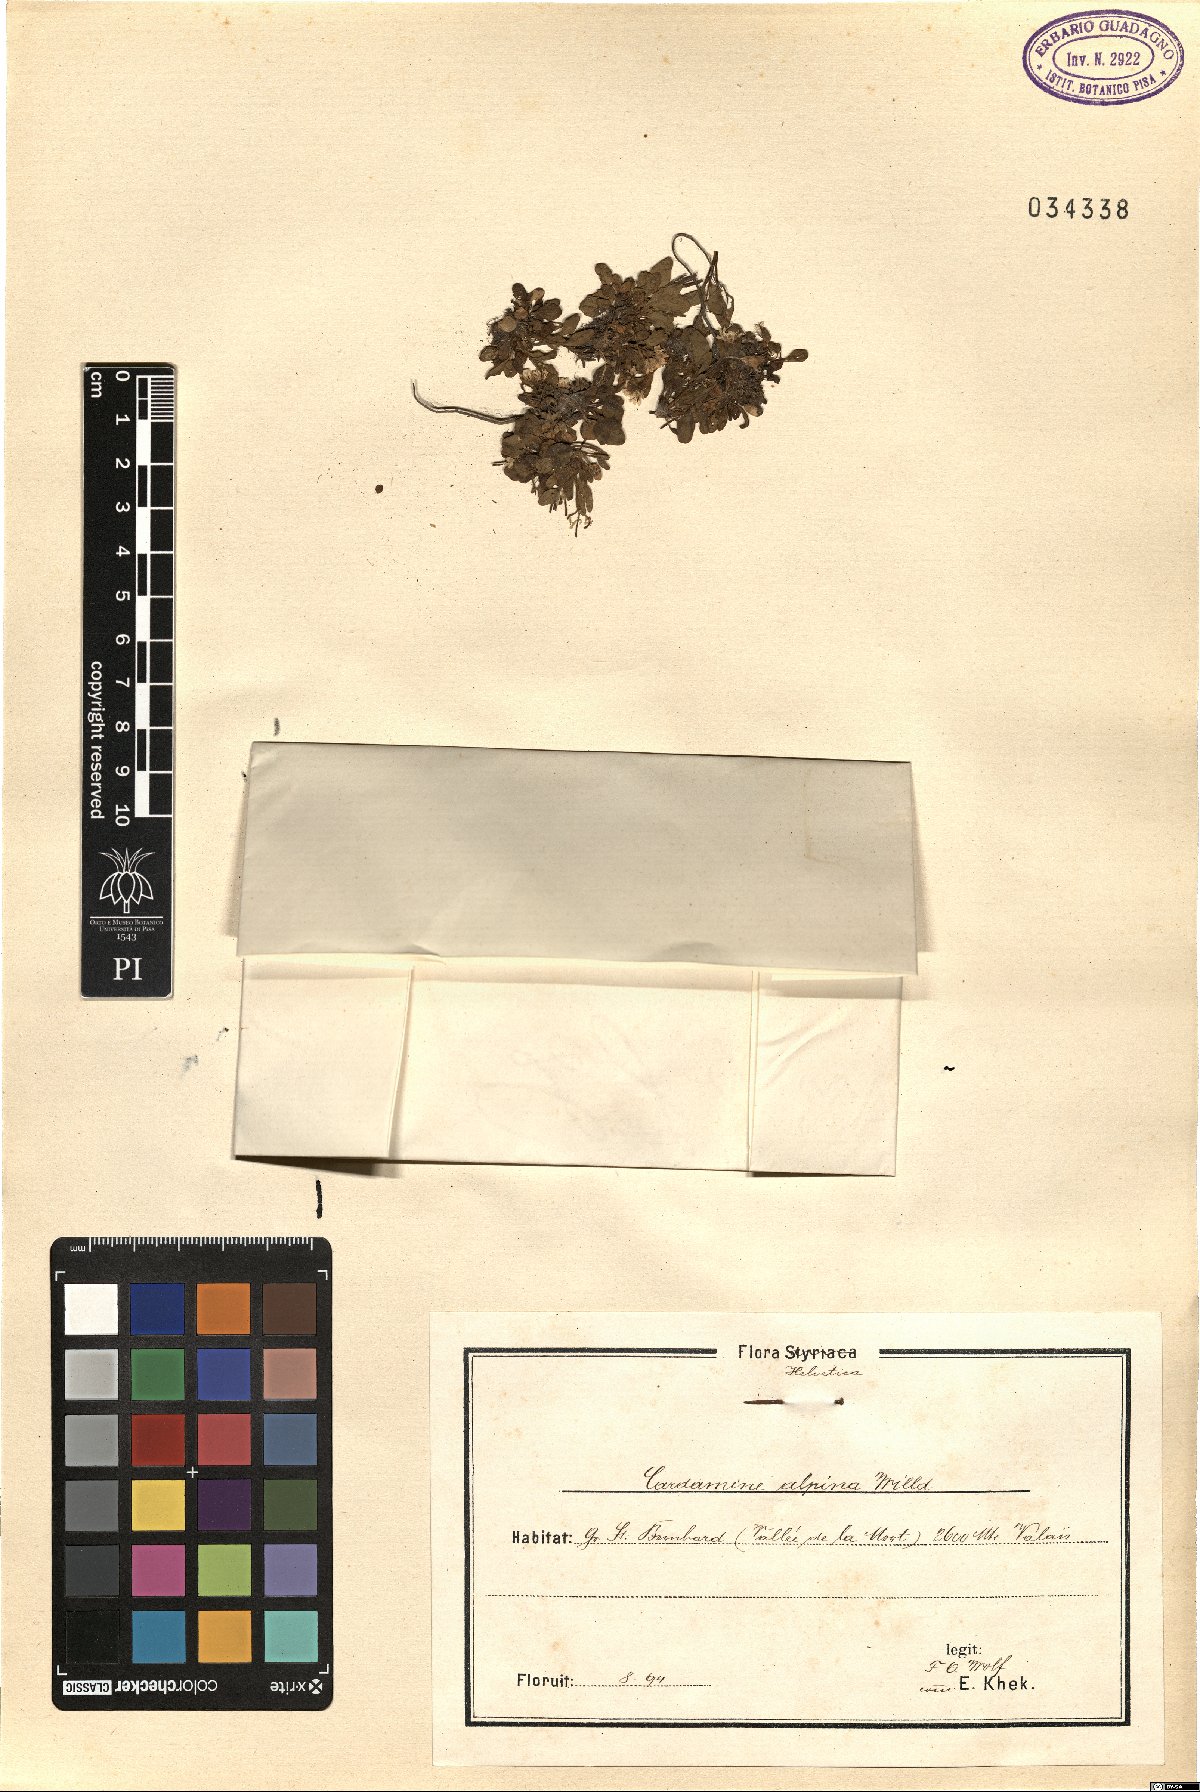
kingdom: Plantae
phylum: Tracheophyta
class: Magnoliopsida
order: Brassicales
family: Brassicaceae
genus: Cardamine
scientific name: Cardamine bellidifolia
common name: Alpine bittercress
